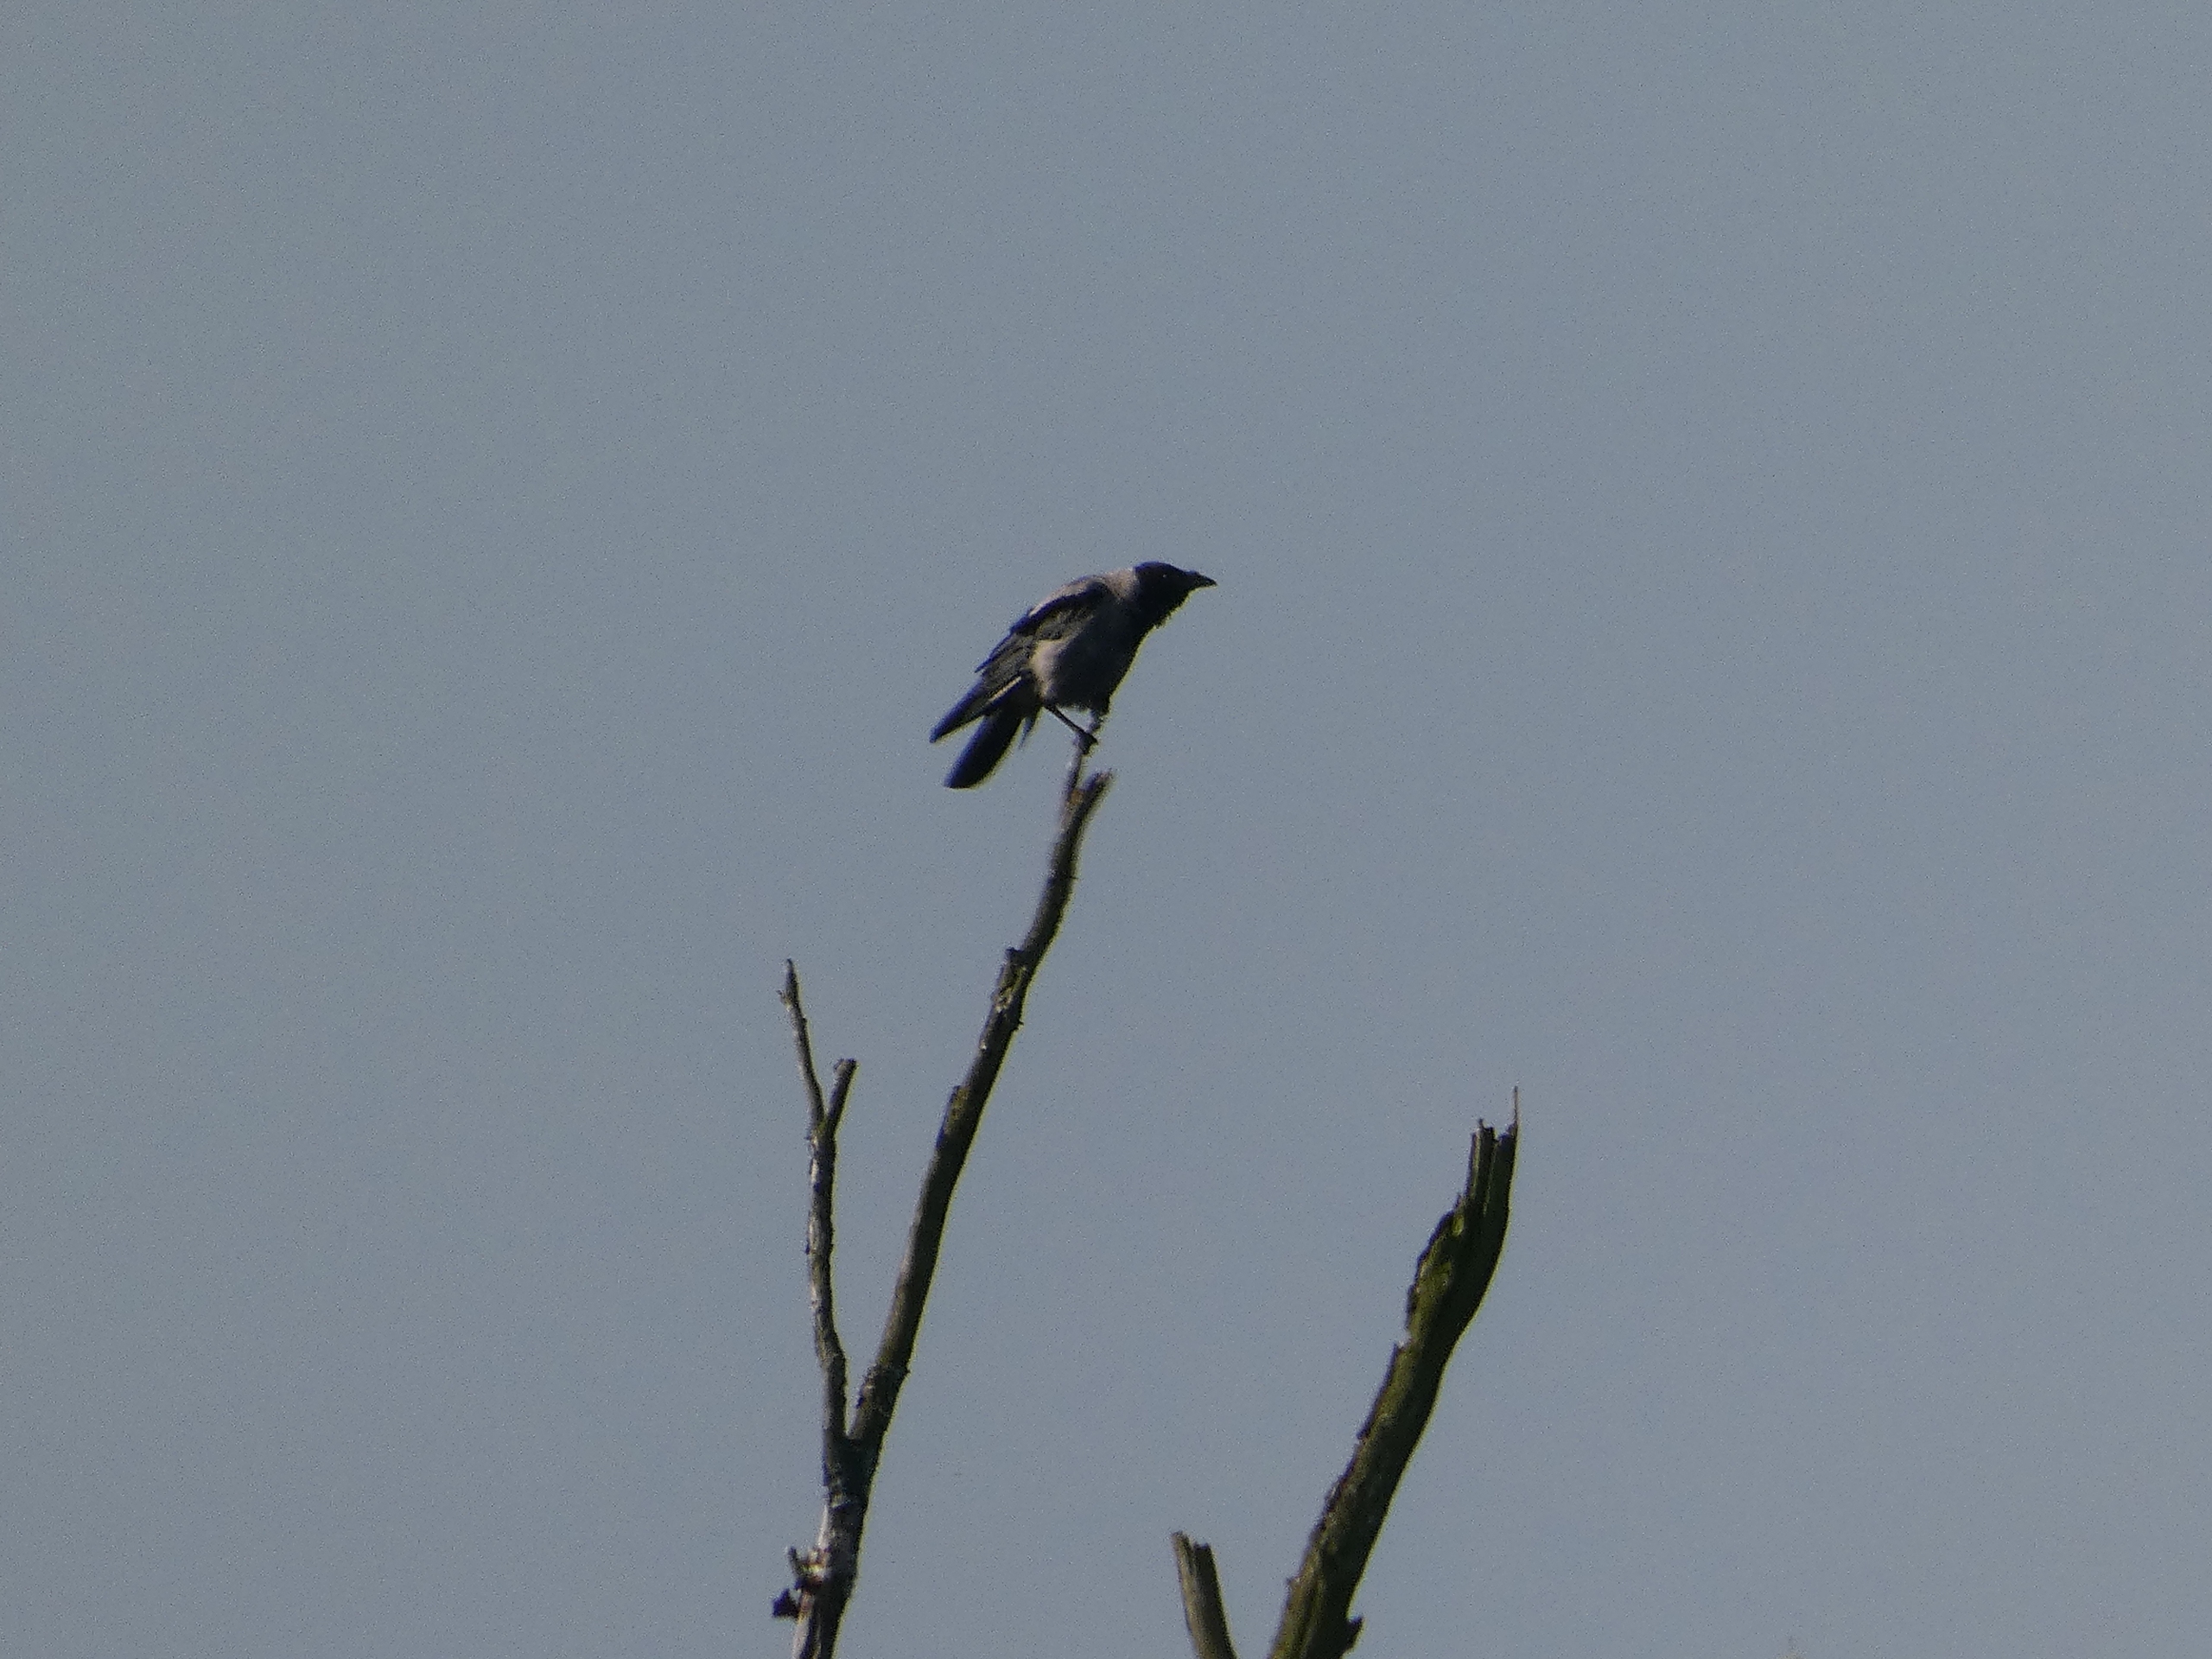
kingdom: Animalia
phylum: Chordata
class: Aves
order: Passeriformes
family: Corvidae
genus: Corvus
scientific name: Corvus cornix
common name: Gråkrage
